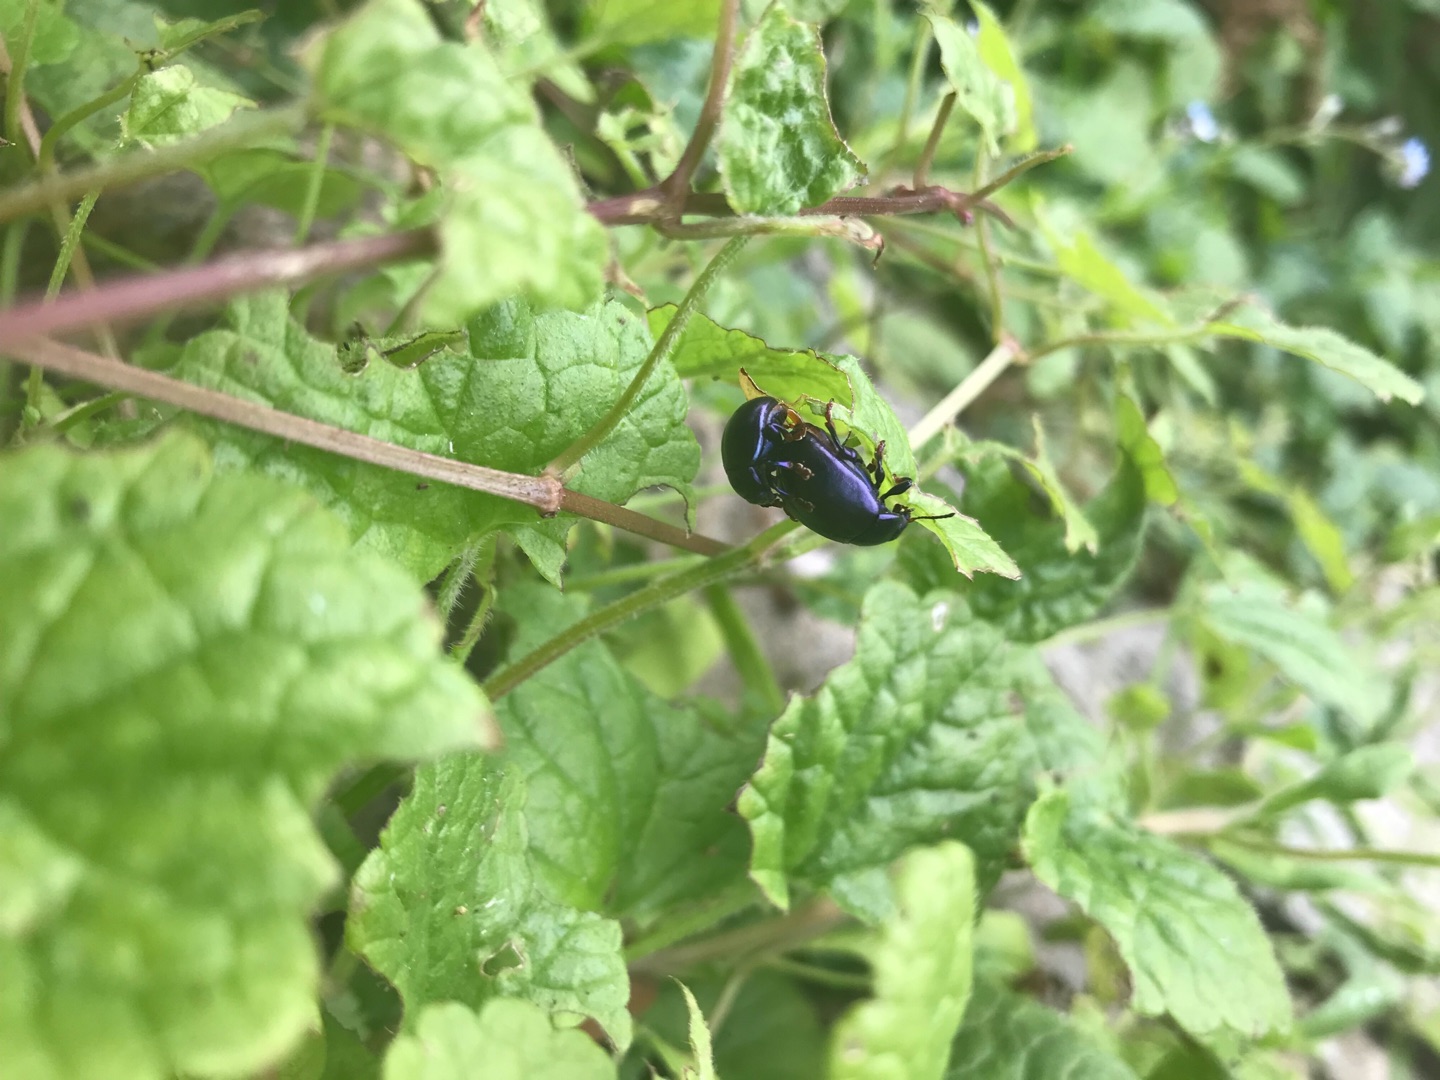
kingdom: Animalia
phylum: Arthropoda
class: Insecta
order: Coleoptera
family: Chrysomelidae
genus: Chrysolina
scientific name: Chrysolina sturmi
